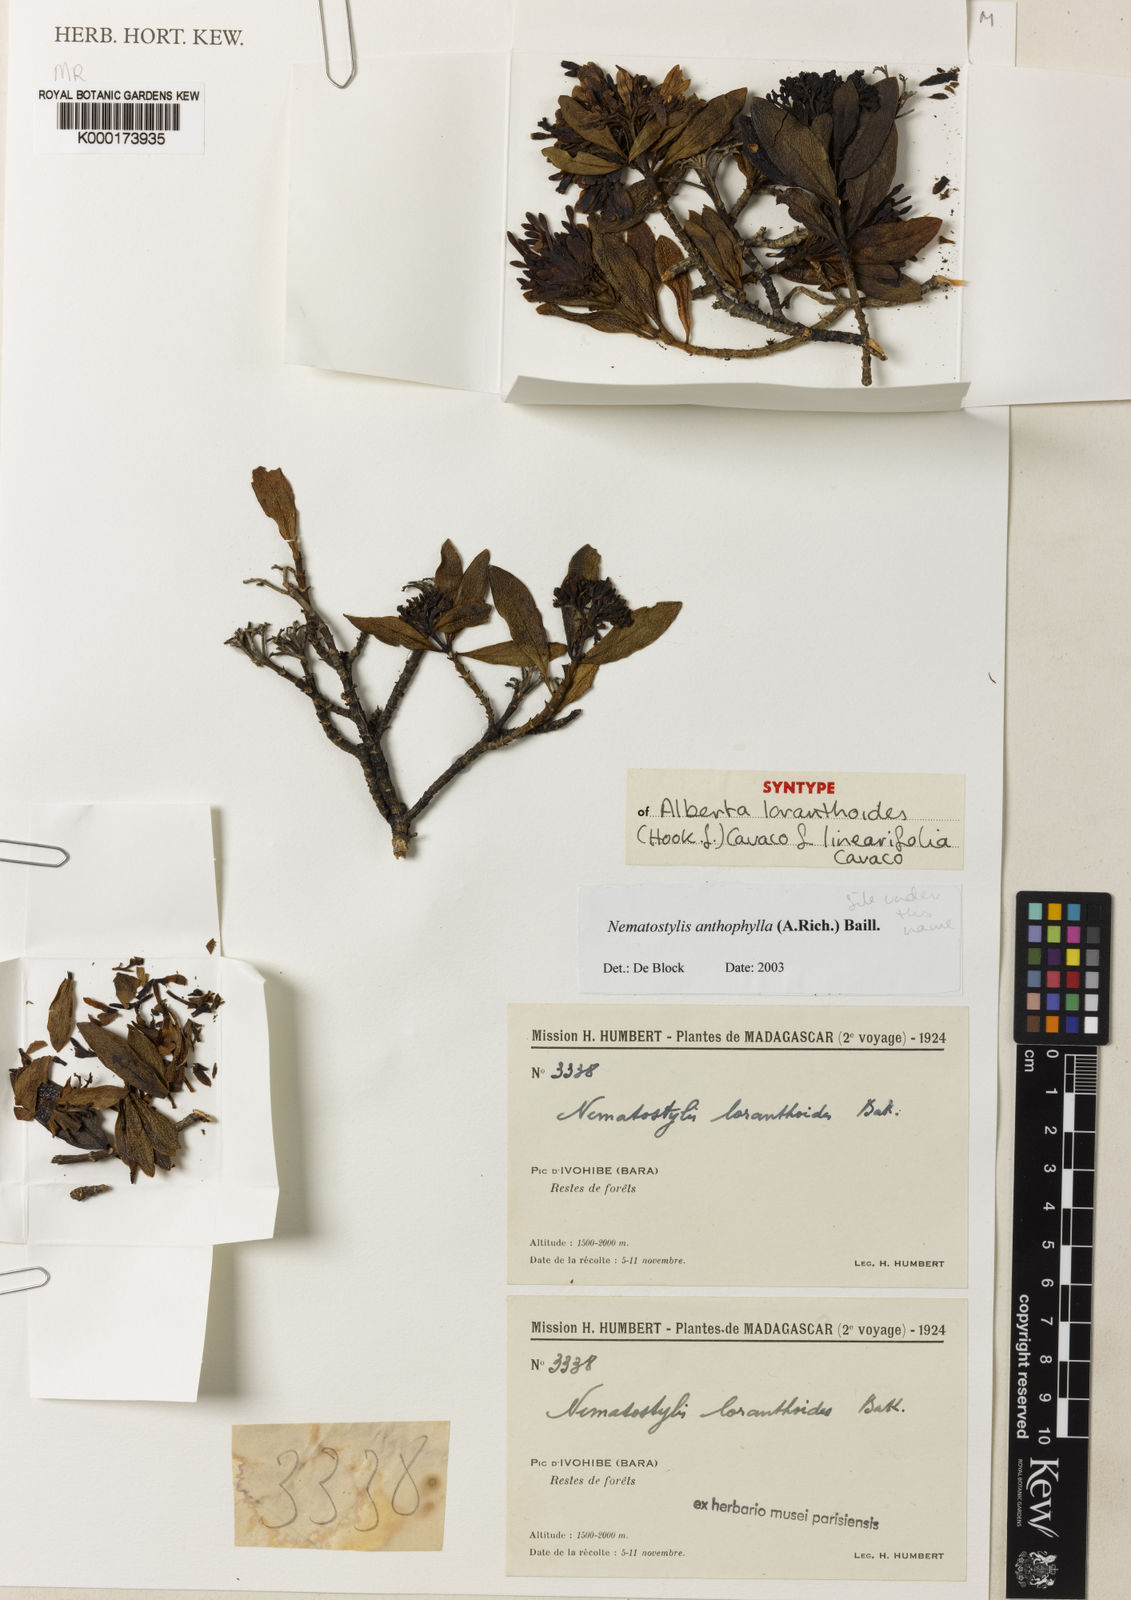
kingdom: Plantae
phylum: Tracheophyta
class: Magnoliopsida
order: Gentianales
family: Rubiaceae
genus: Nematostylis
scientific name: Nematostylis anthophylla
